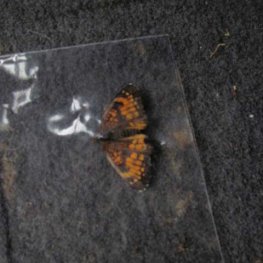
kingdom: Animalia
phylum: Arthropoda
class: Insecta
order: Lepidoptera
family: Nymphalidae
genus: Chlosyne
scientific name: Chlosyne harrisii
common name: Harris's Checkerspot
